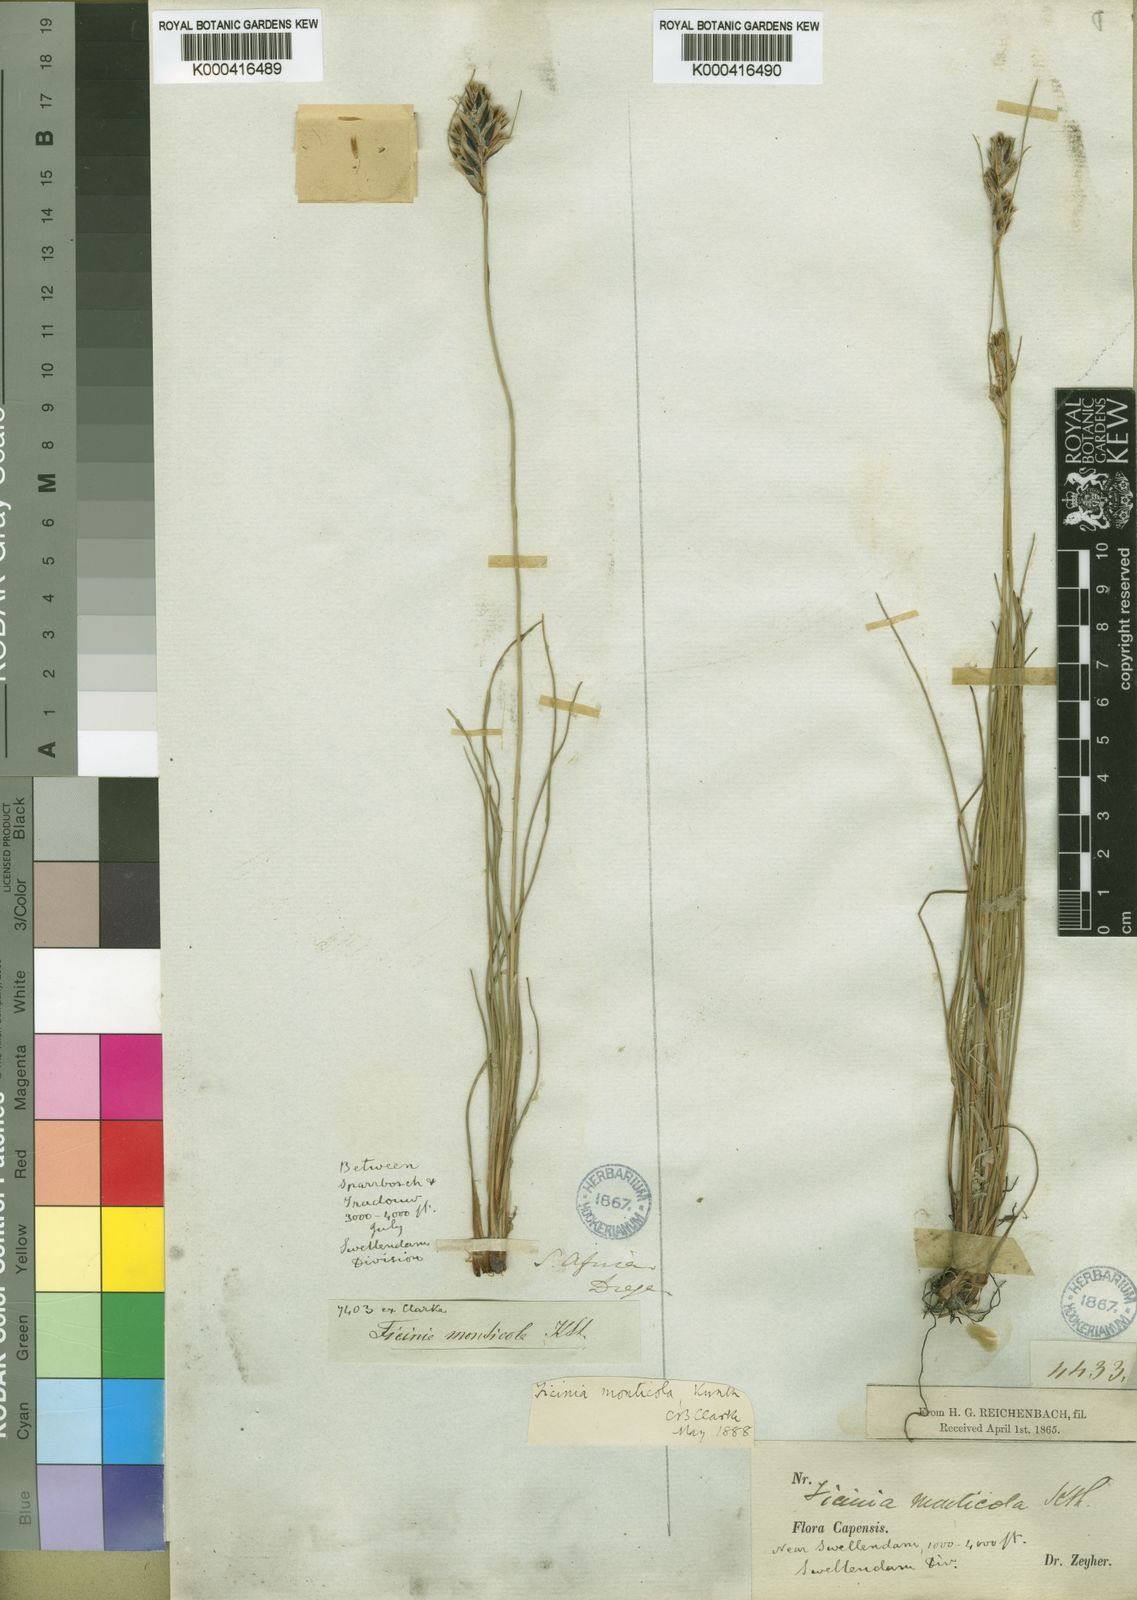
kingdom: Plantae
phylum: Tracheophyta
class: Liliopsida
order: Poales
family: Cyperaceae
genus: Ficinia
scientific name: Ficinia monticola
